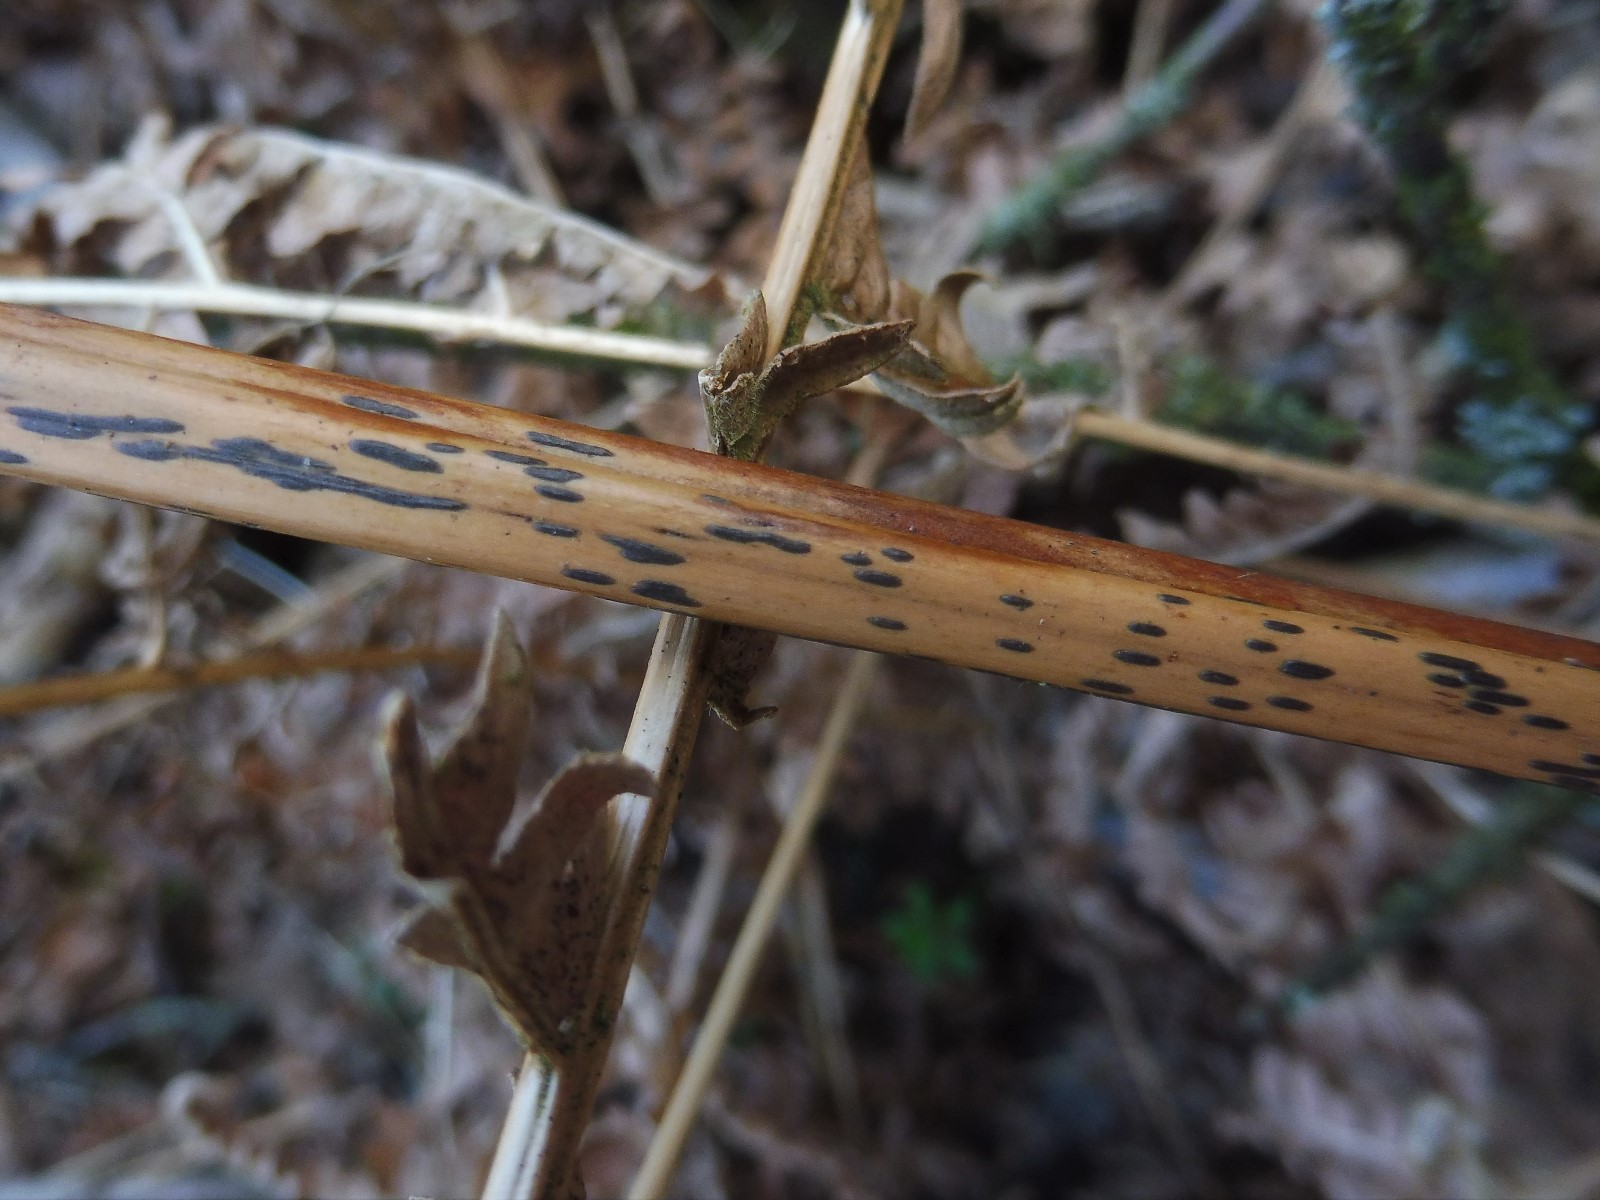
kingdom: Fungi
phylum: Ascomycota
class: Dothideomycetes
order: Pleosporales
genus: Rhopographus
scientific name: Rhopographus filicinus
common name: Bracken map
